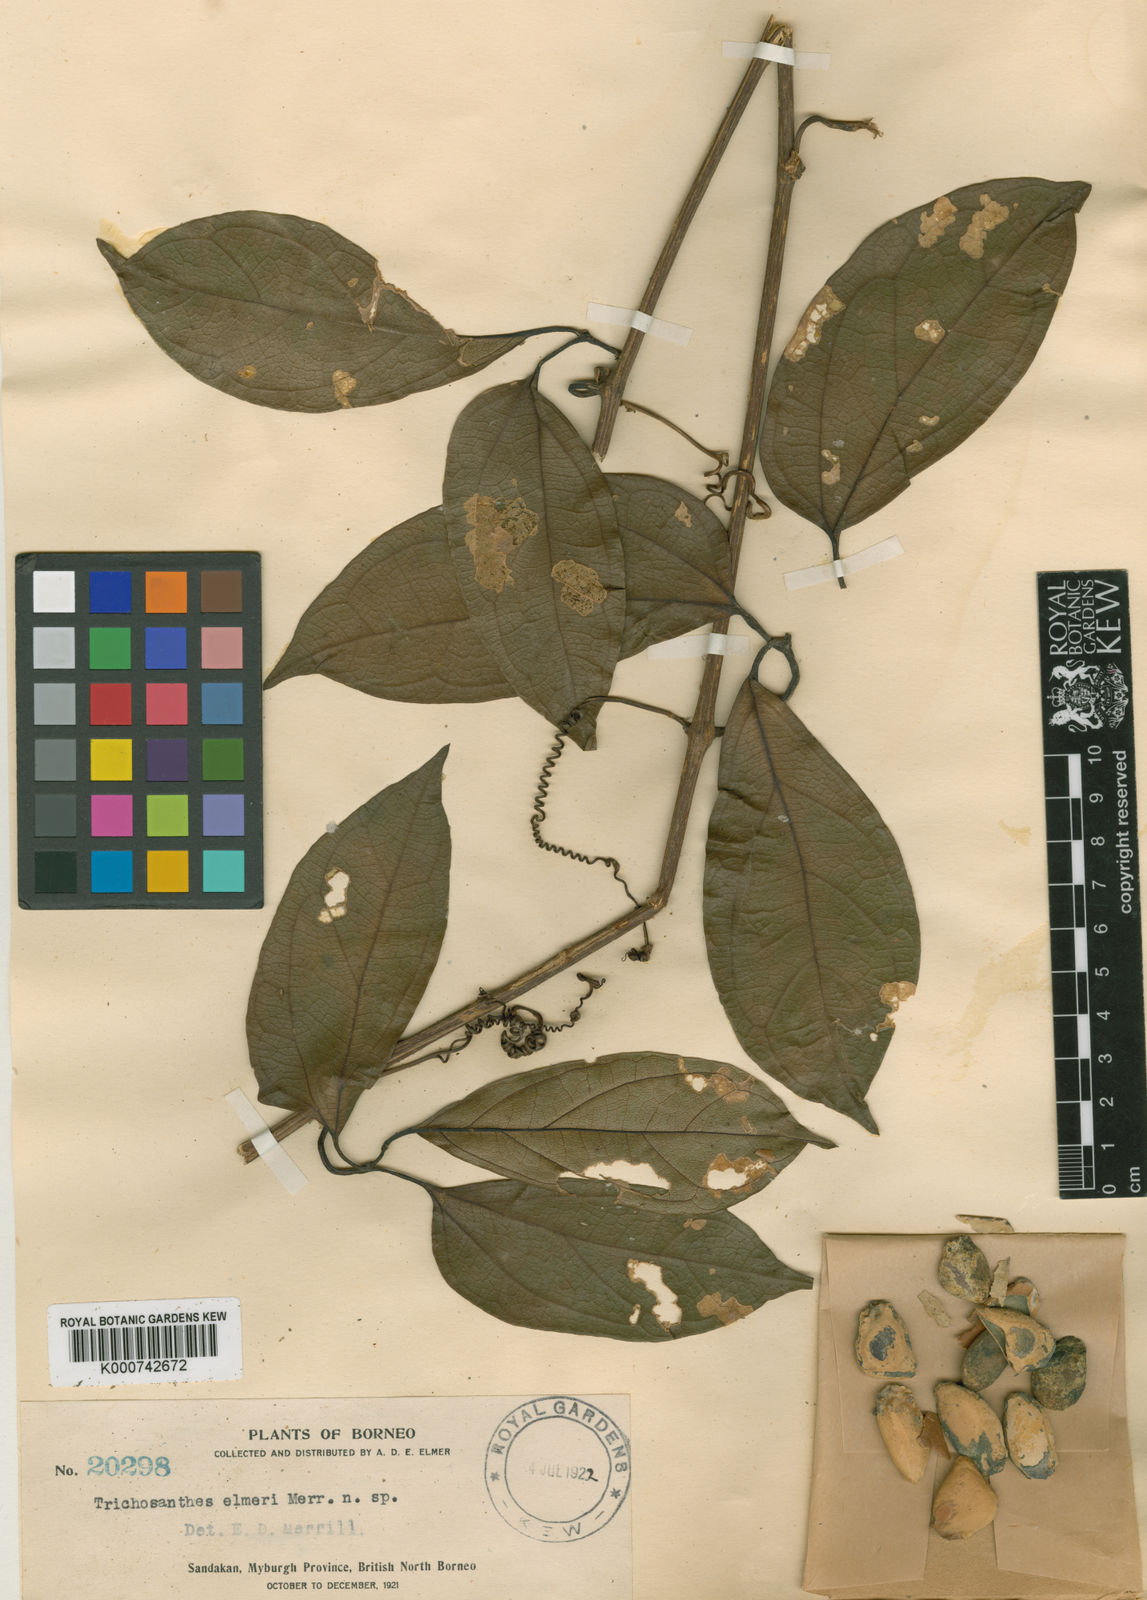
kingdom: Plantae
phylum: Tracheophyta
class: Magnoliopsida
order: Cucurbitales
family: Cucurbitaceae
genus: Trichosanthes
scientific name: Trichosanthes elmeri
